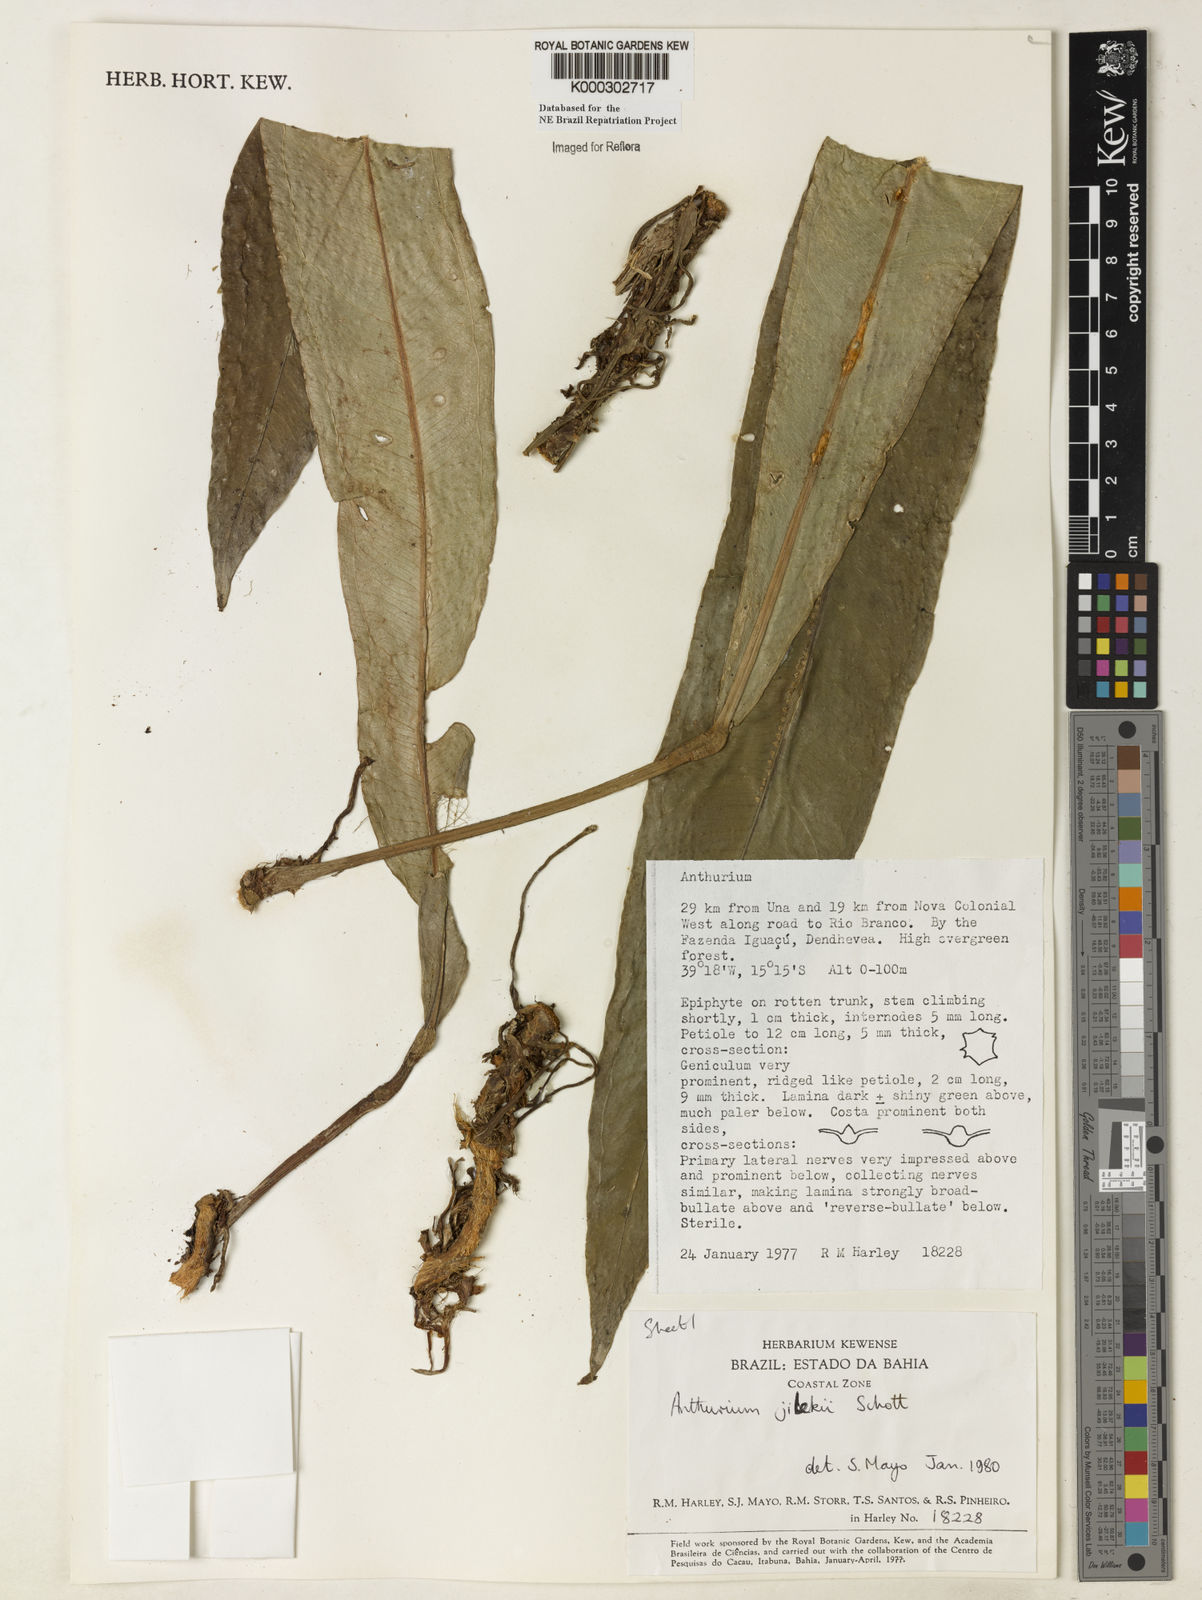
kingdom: Plantae
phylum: Tracheophyta
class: Liliopsida
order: Alismatales
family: Araceae
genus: Anthurium
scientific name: Anthurium jilekii
